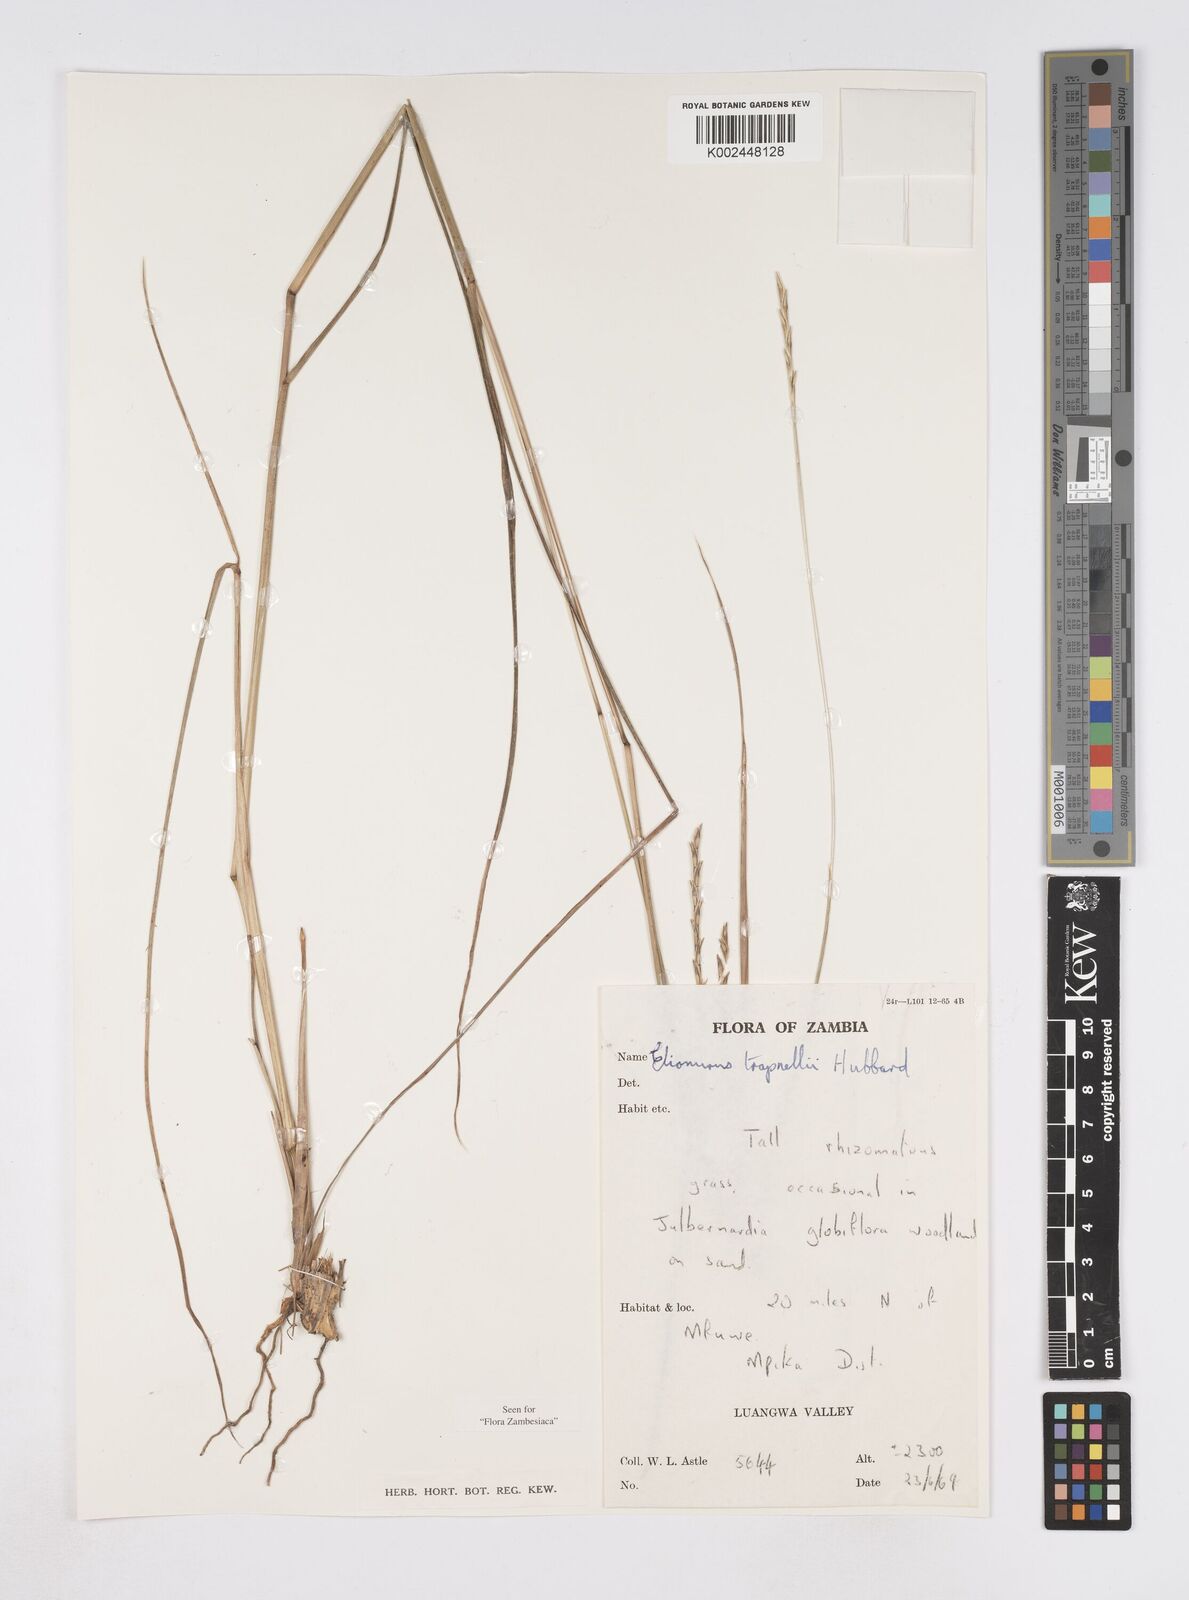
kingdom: Plantae
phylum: Tracheophyta
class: Liliopsida
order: Poales
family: Poaceae
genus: Elionurus
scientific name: Elionurus tripsacoides
